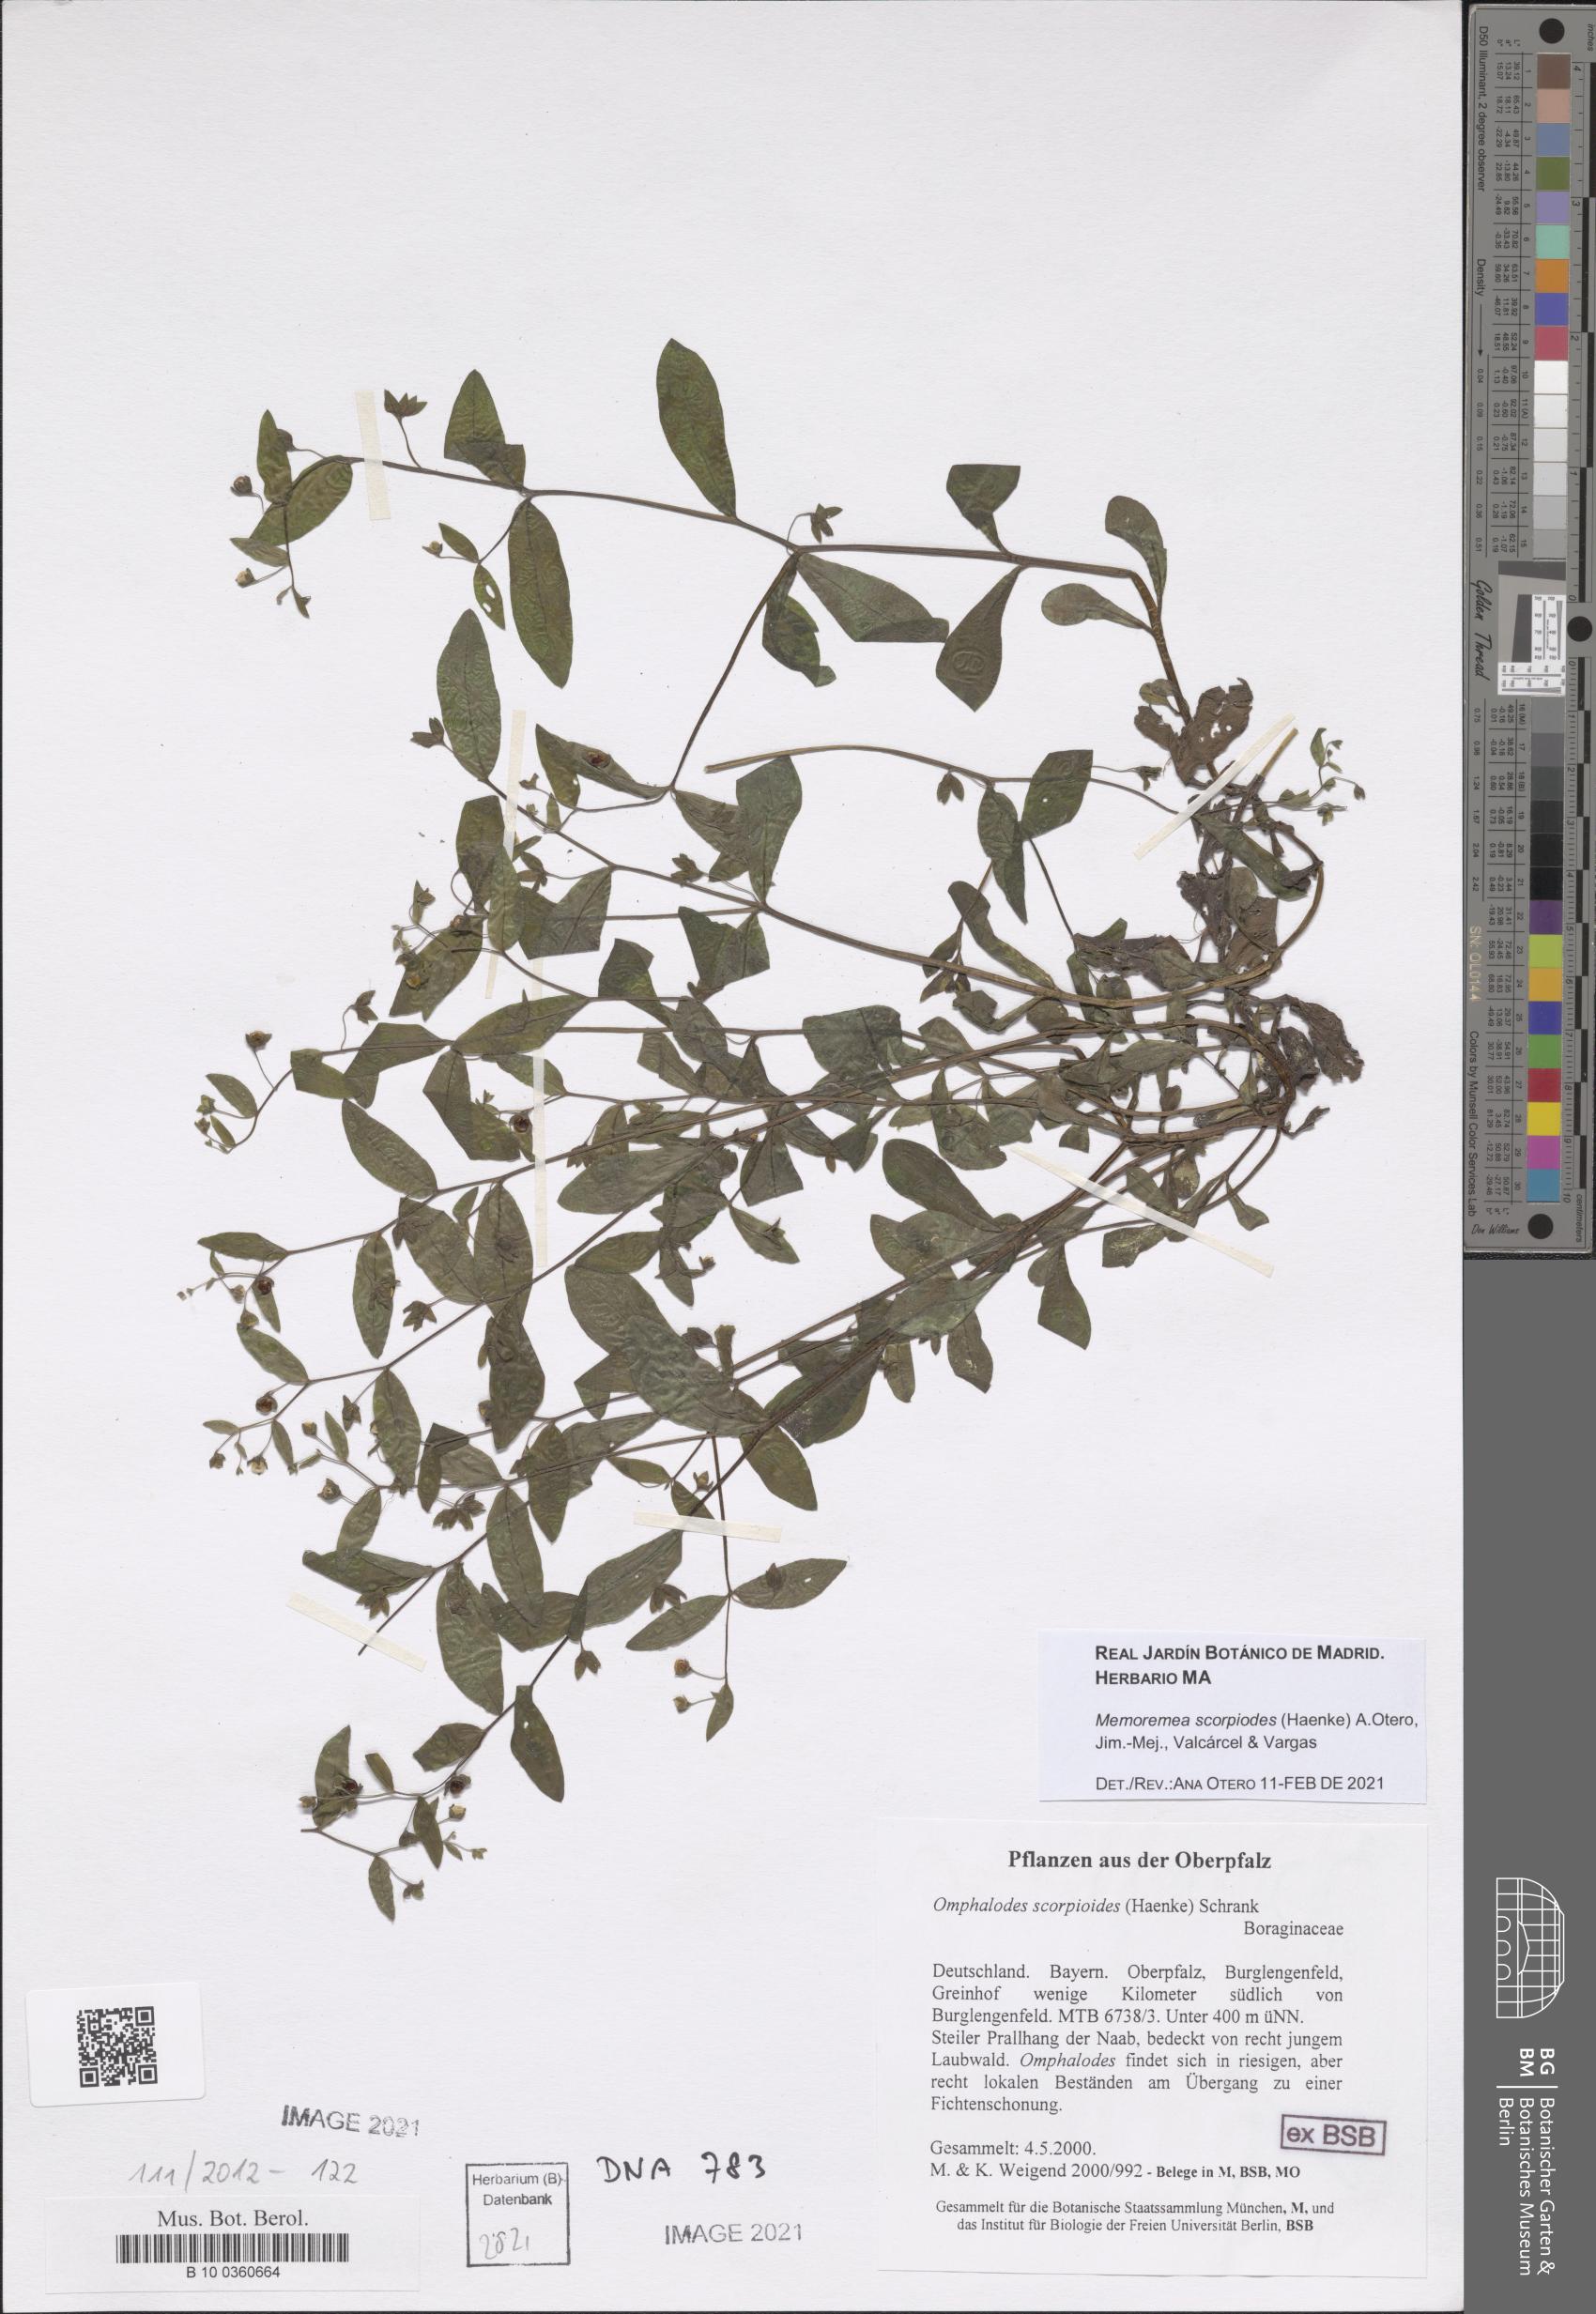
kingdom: Plantae
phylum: Tracheophyta
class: Magnoliopsida
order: Boraginales
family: Boraginaceae
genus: Memoremea
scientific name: Memoremea scorpioides
